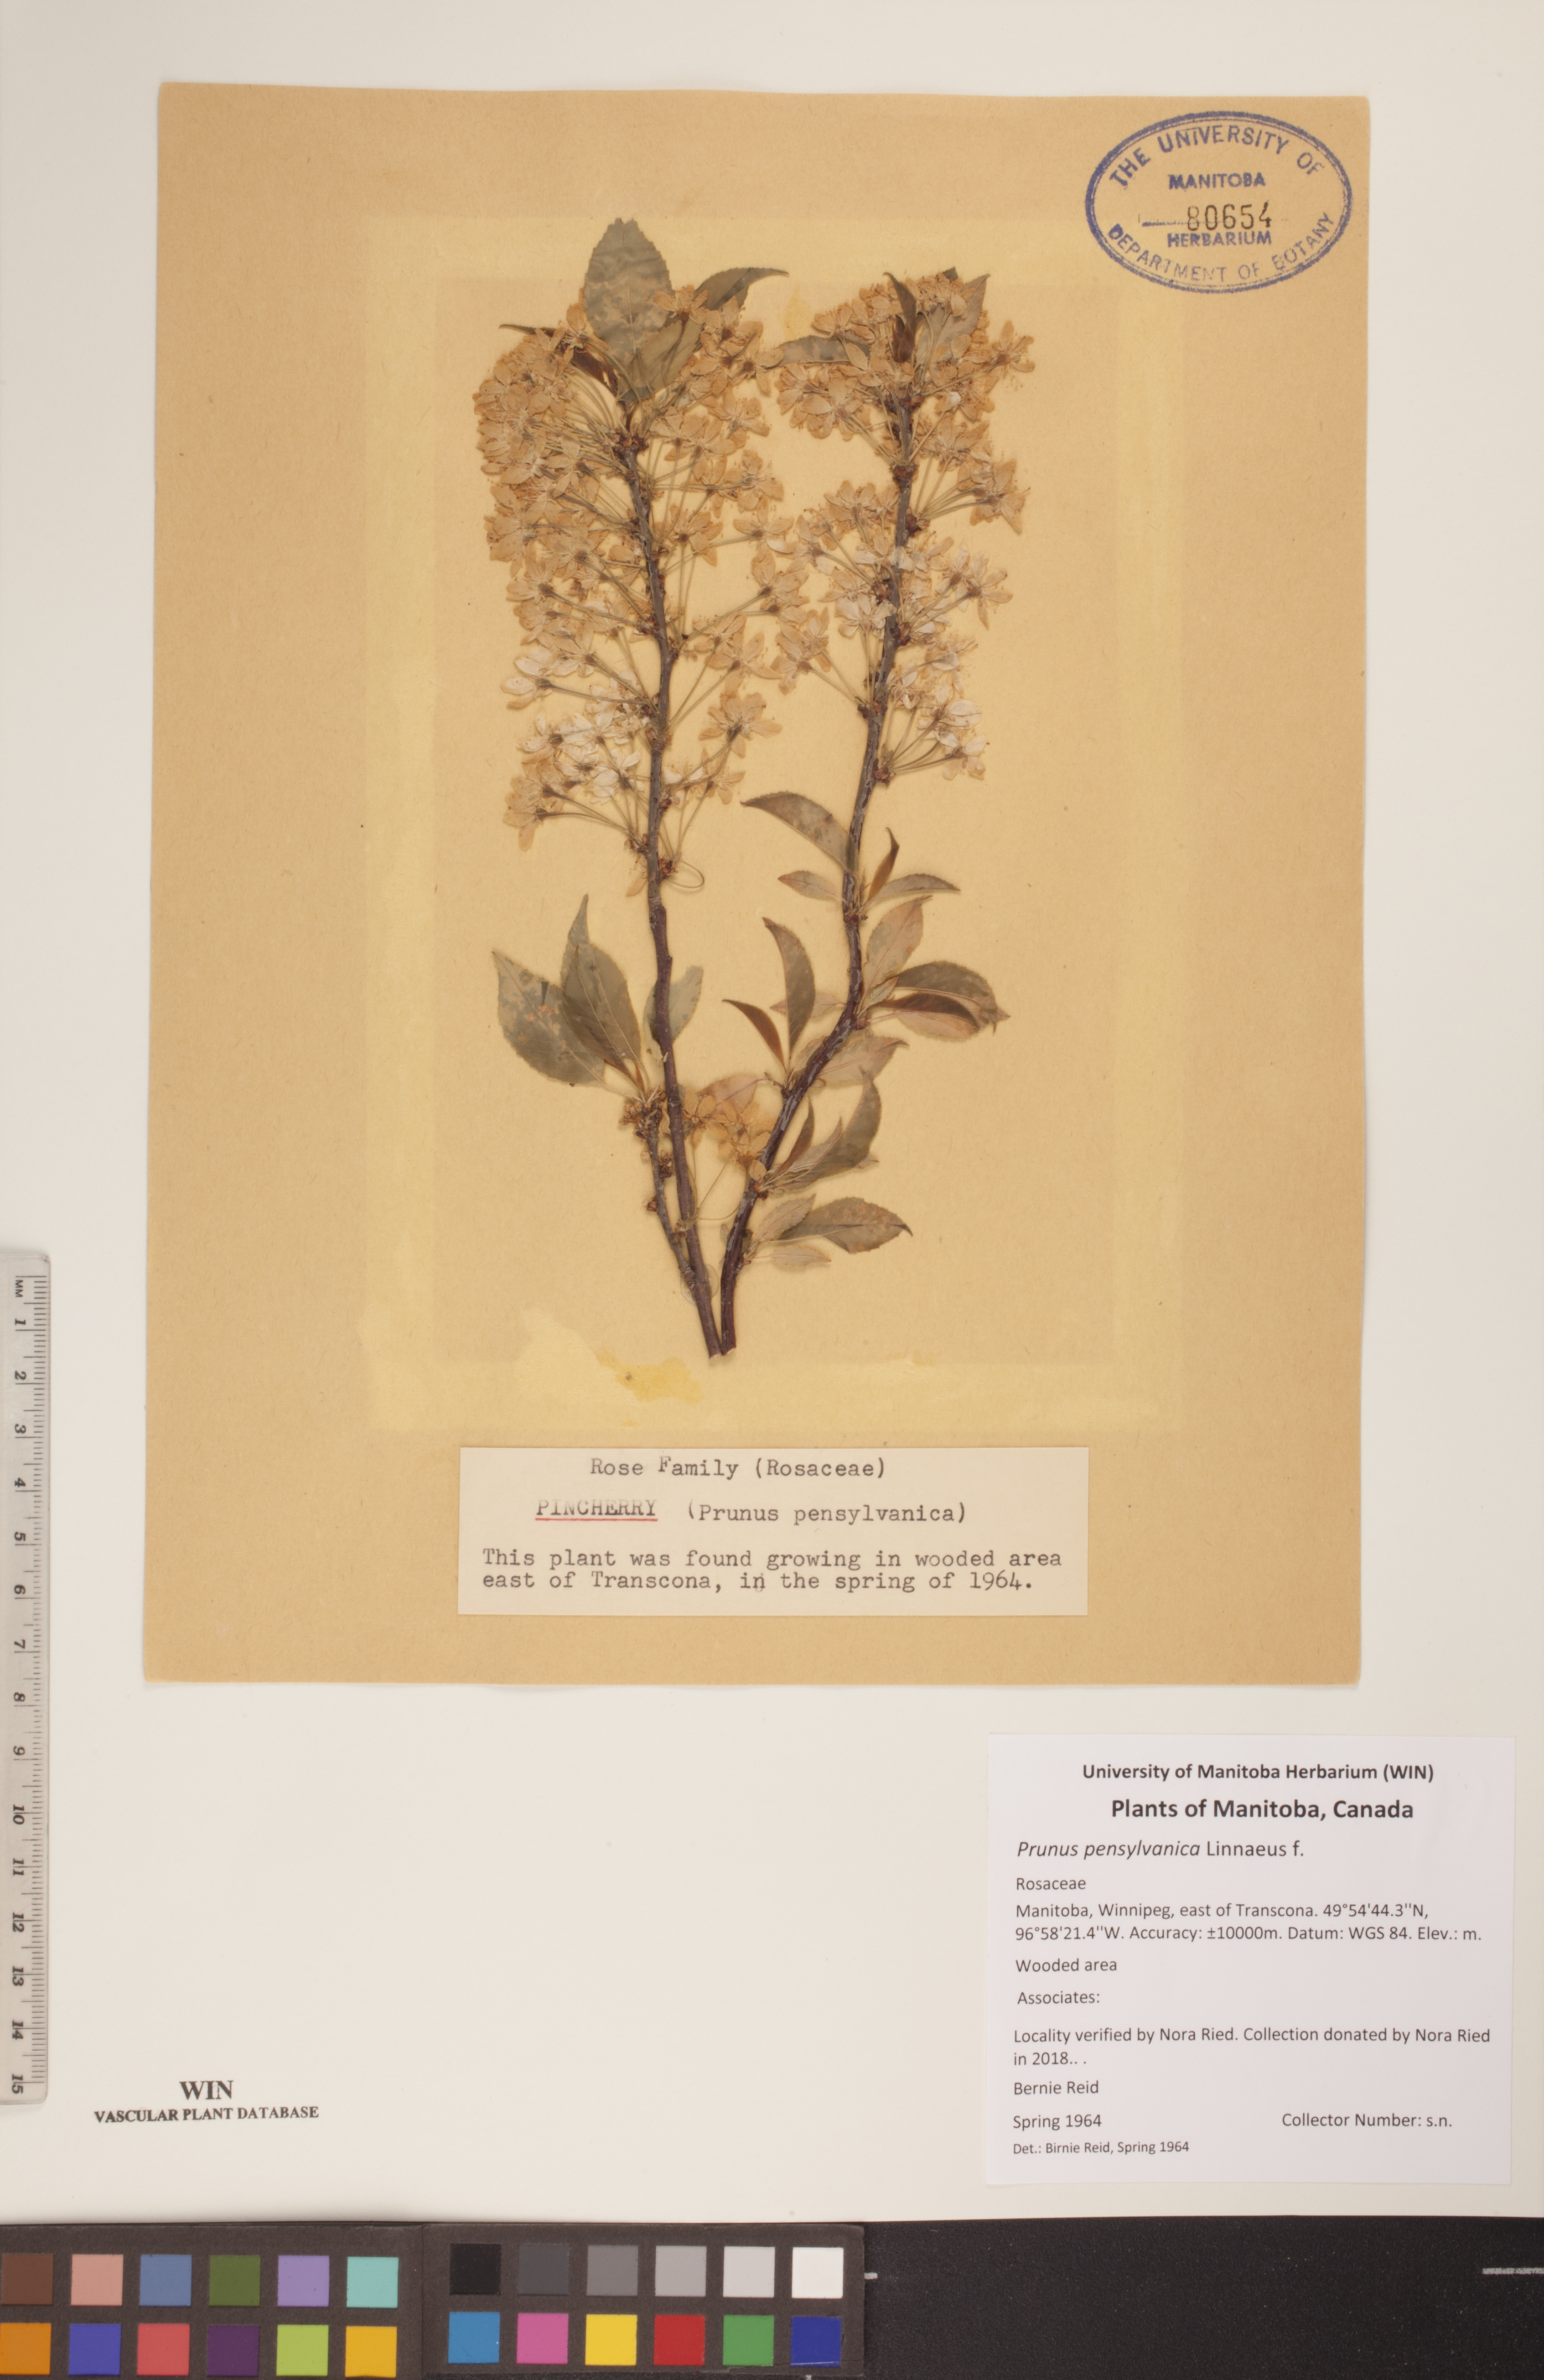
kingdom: Plantae
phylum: Tracheophyta
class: Magnoliopsida
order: Rosales
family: Rosaceae
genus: Prunus
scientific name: Prunus pensylvanica
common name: Pin cherry
